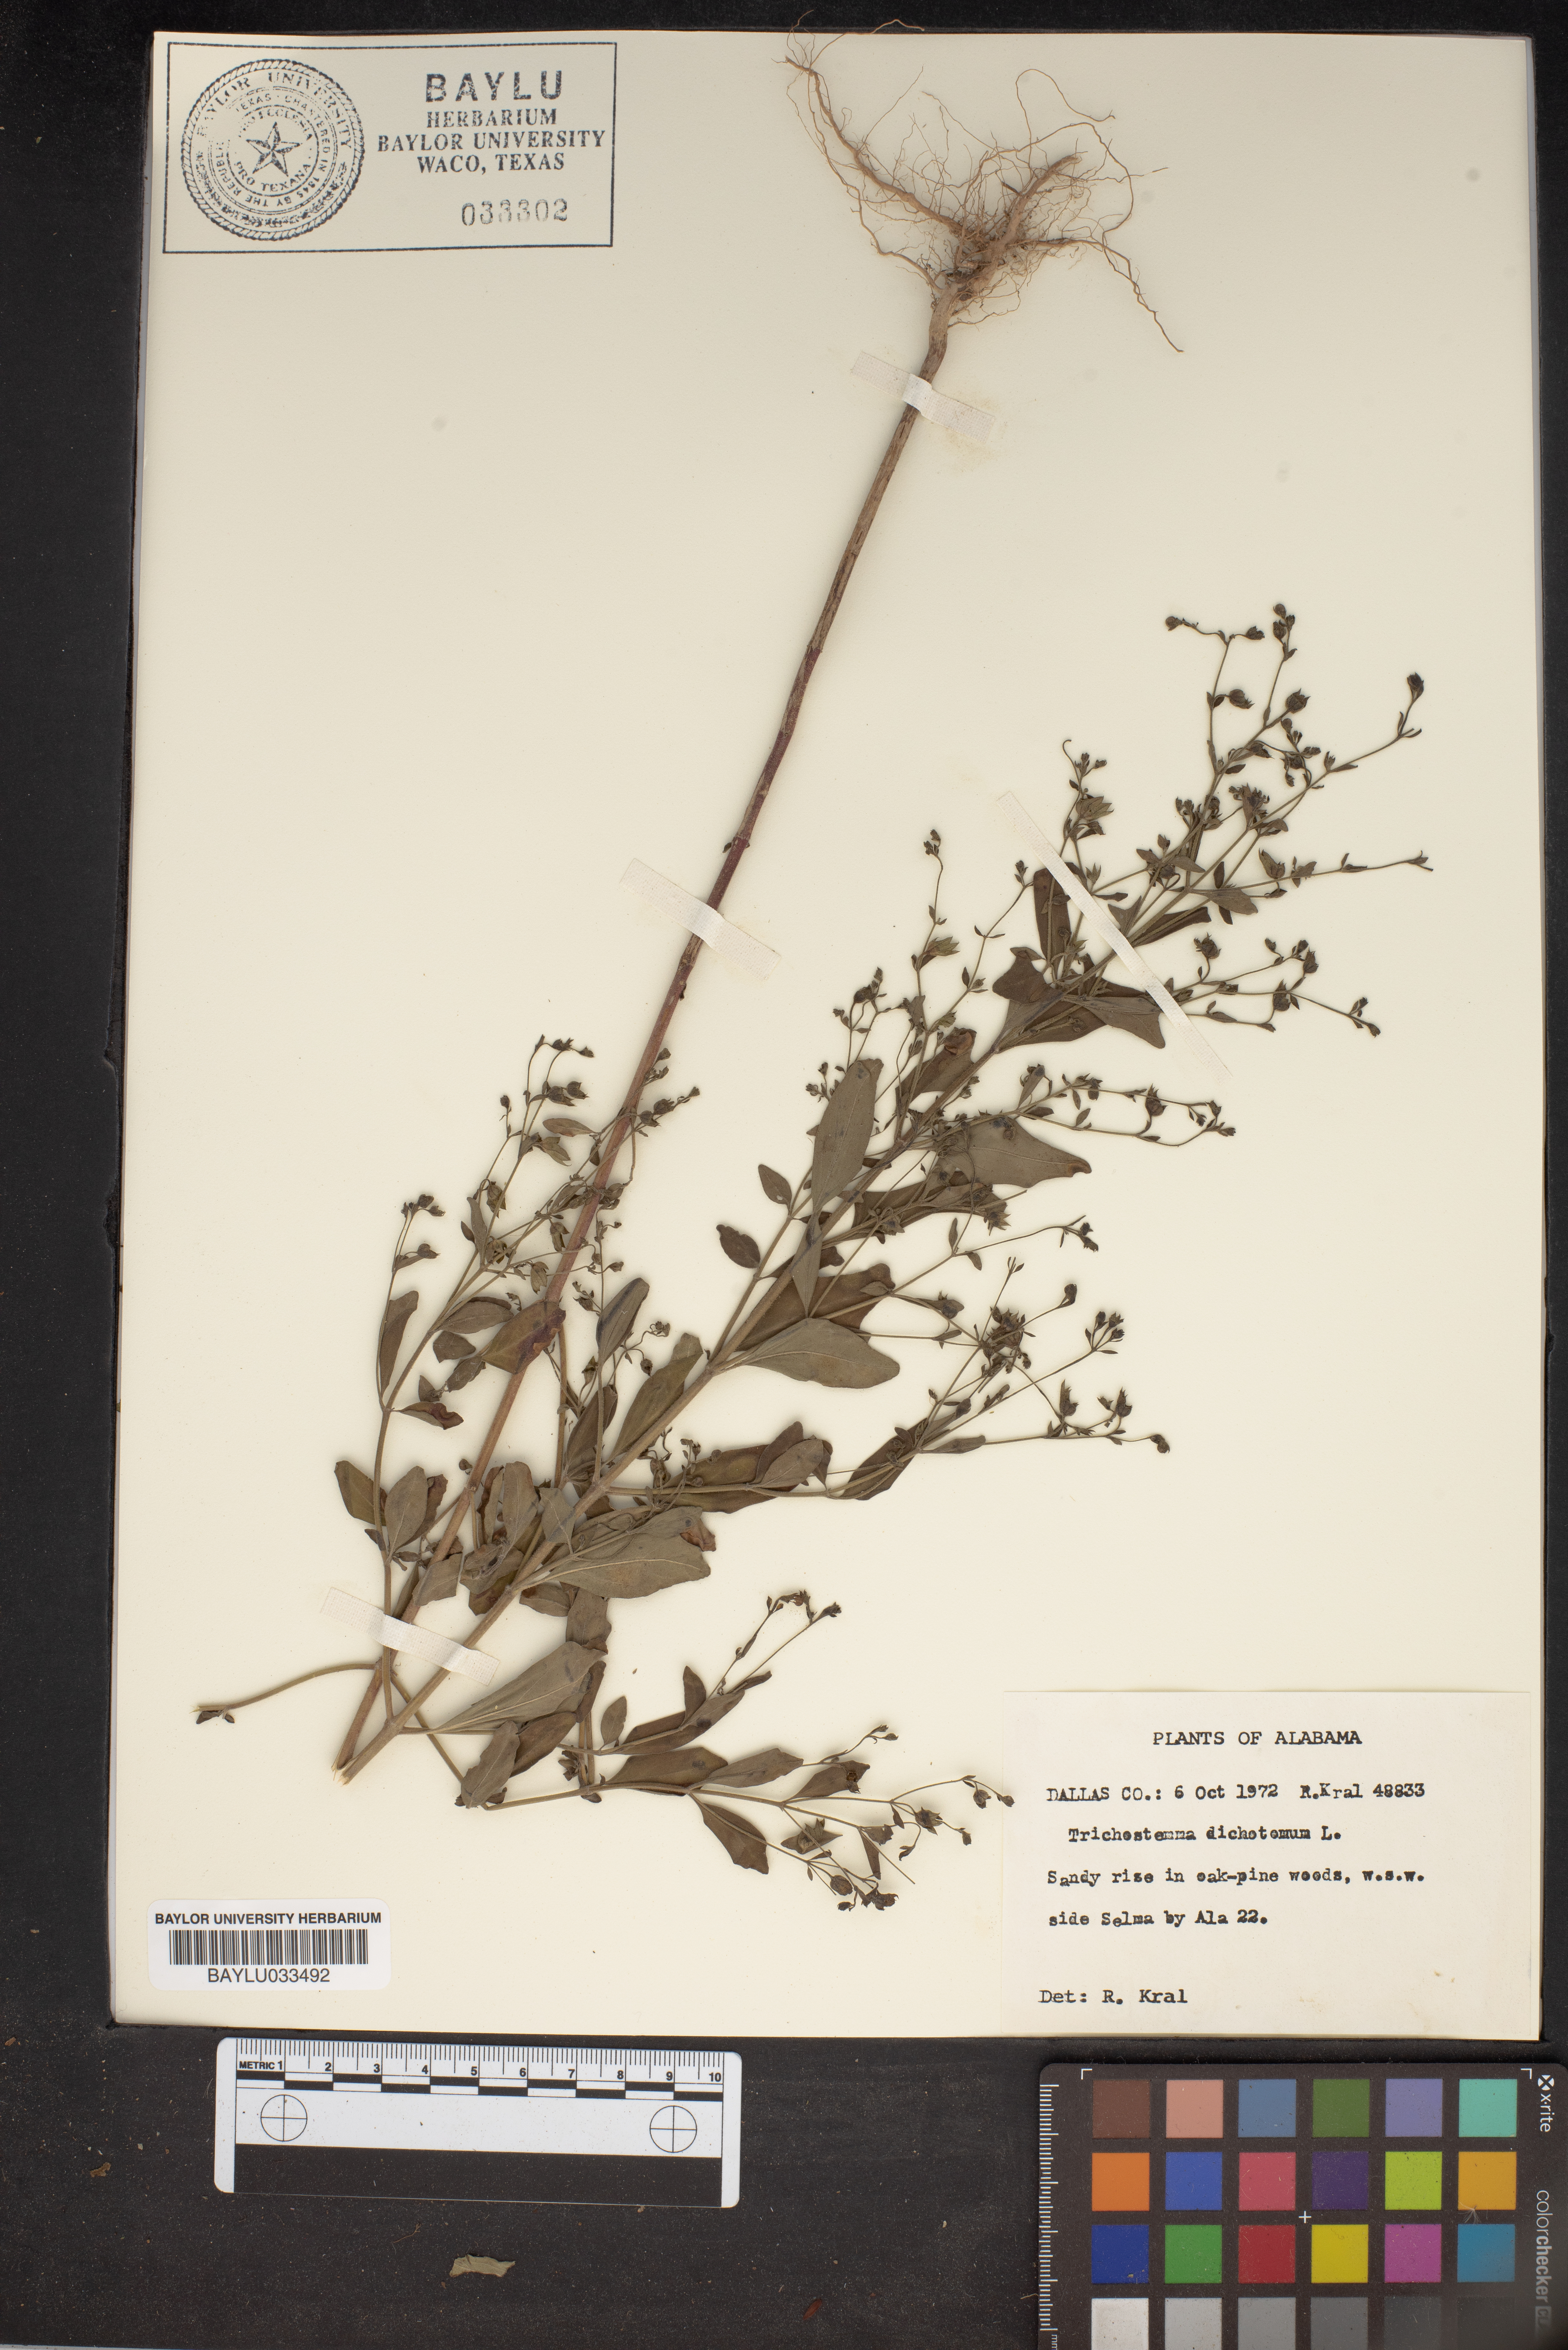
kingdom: Plantae
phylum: Tracheophyta
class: Magnoliopsida
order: Lamiales
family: Lamiaceae
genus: Trichostema
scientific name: Trichostema dichotomum
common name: Bastard pennyroyal
